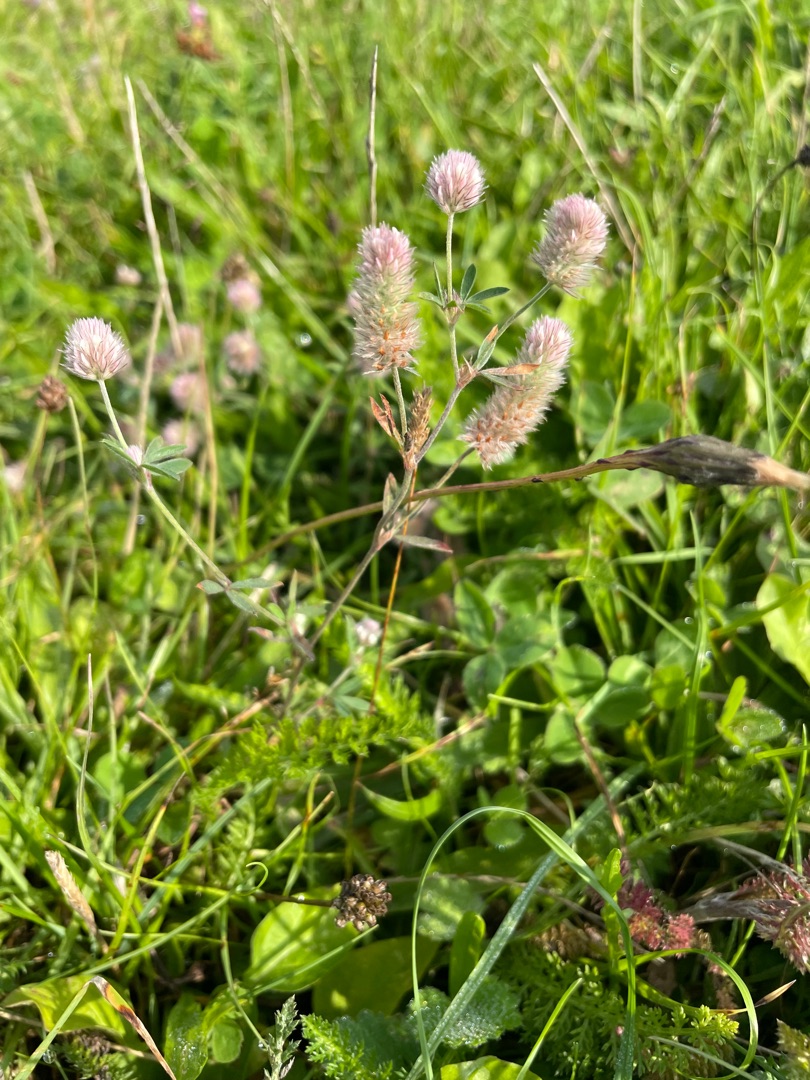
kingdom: Plantae
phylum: Tracheophyta
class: Magnoliopsida
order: Fabales
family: Fabaceae
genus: Trifolium
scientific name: Trifolium arvense
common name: Hare-kløver
